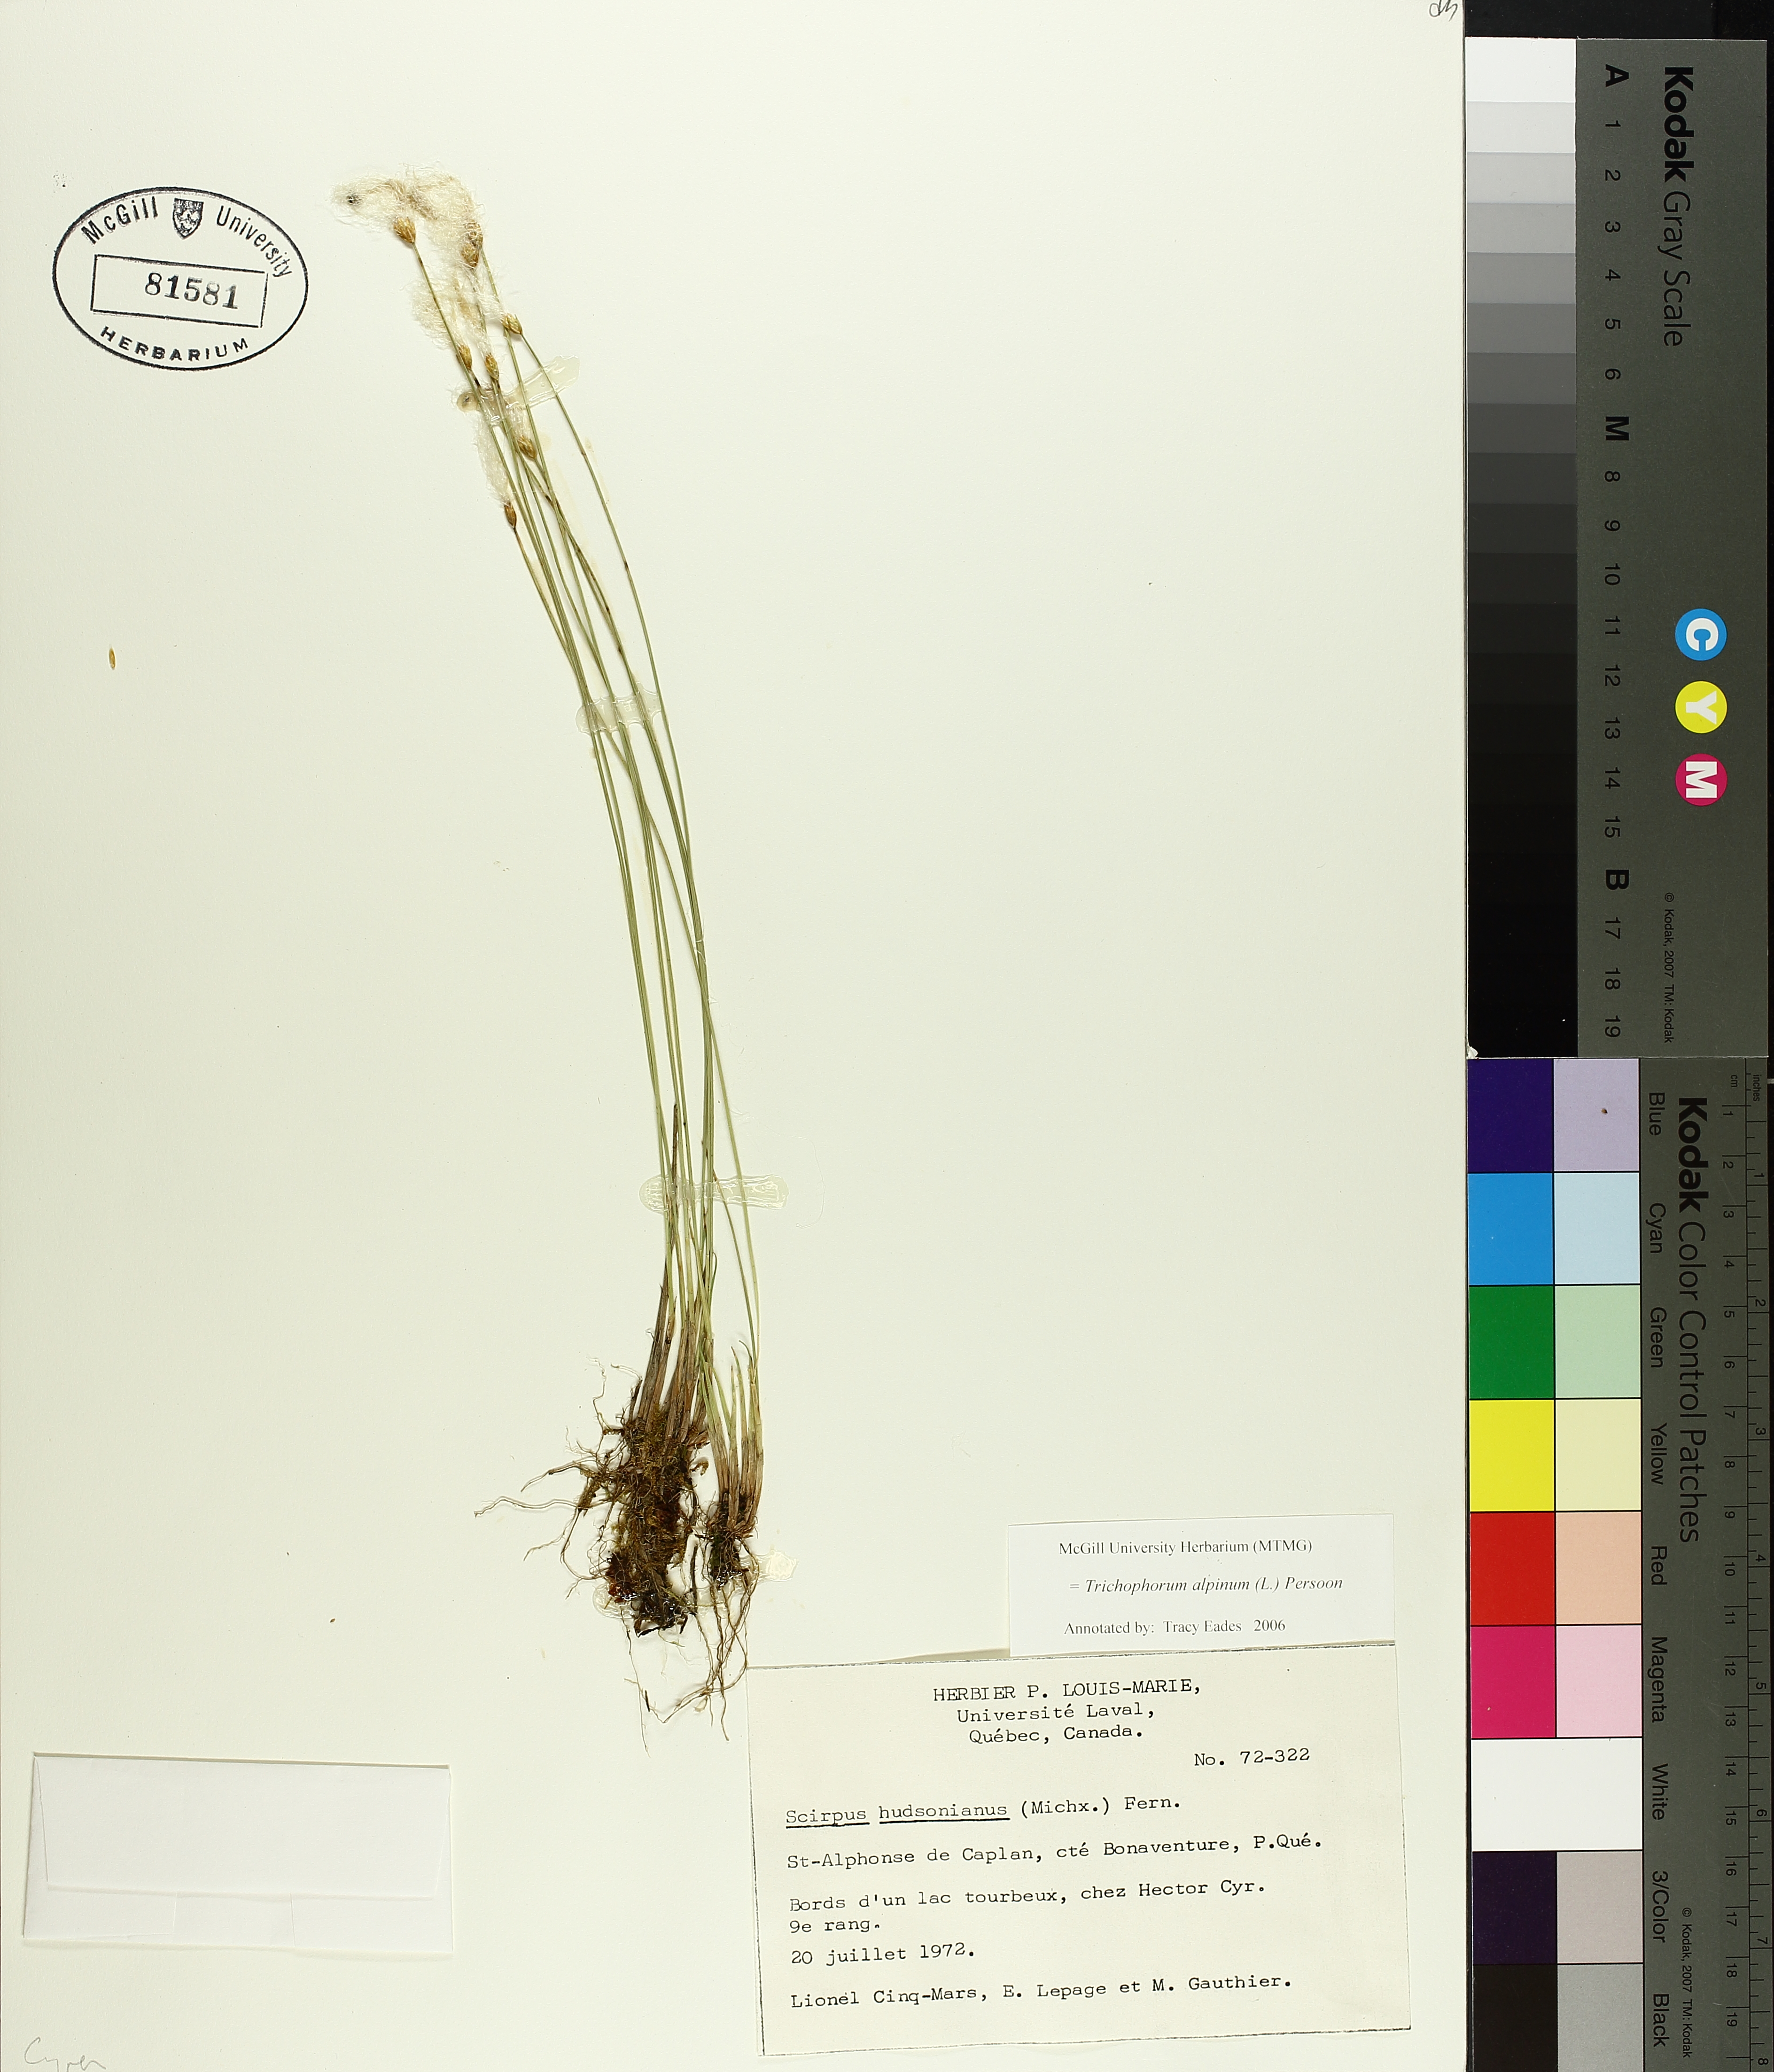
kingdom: Plantae
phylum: Tracheophyta
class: Liliopsida
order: Poales
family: Cyperaceae
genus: Trichophorum
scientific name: Trichophorum alpinum
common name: Alpine bulrush
